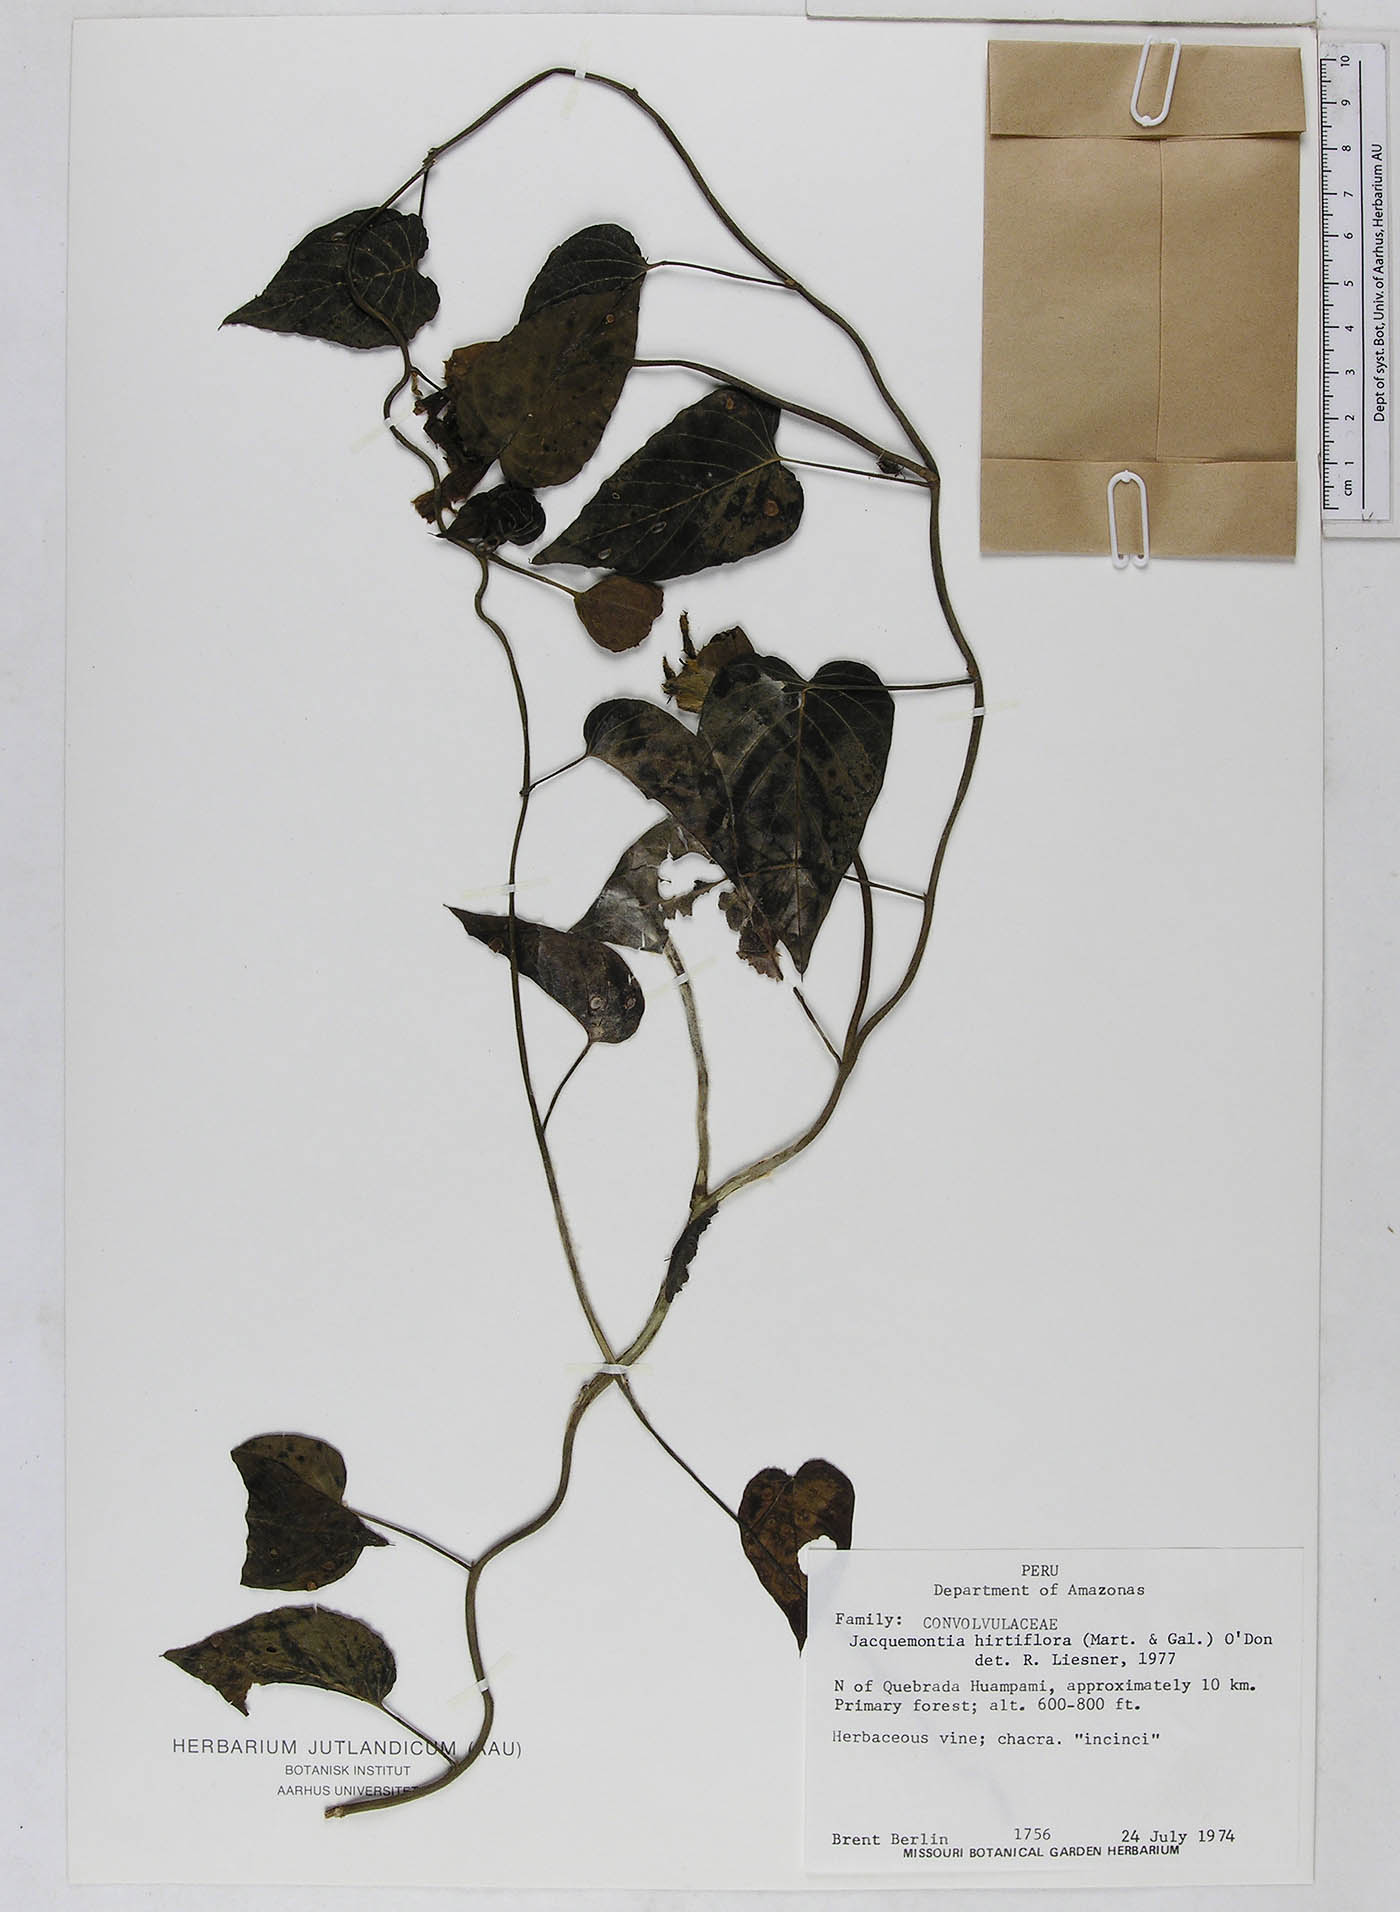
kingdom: Plantae
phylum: Tracheophyta
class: Magnoliopsida
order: Solanales
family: Convolvulaceae
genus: Odonellia
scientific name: Odonellia hirtiflora
